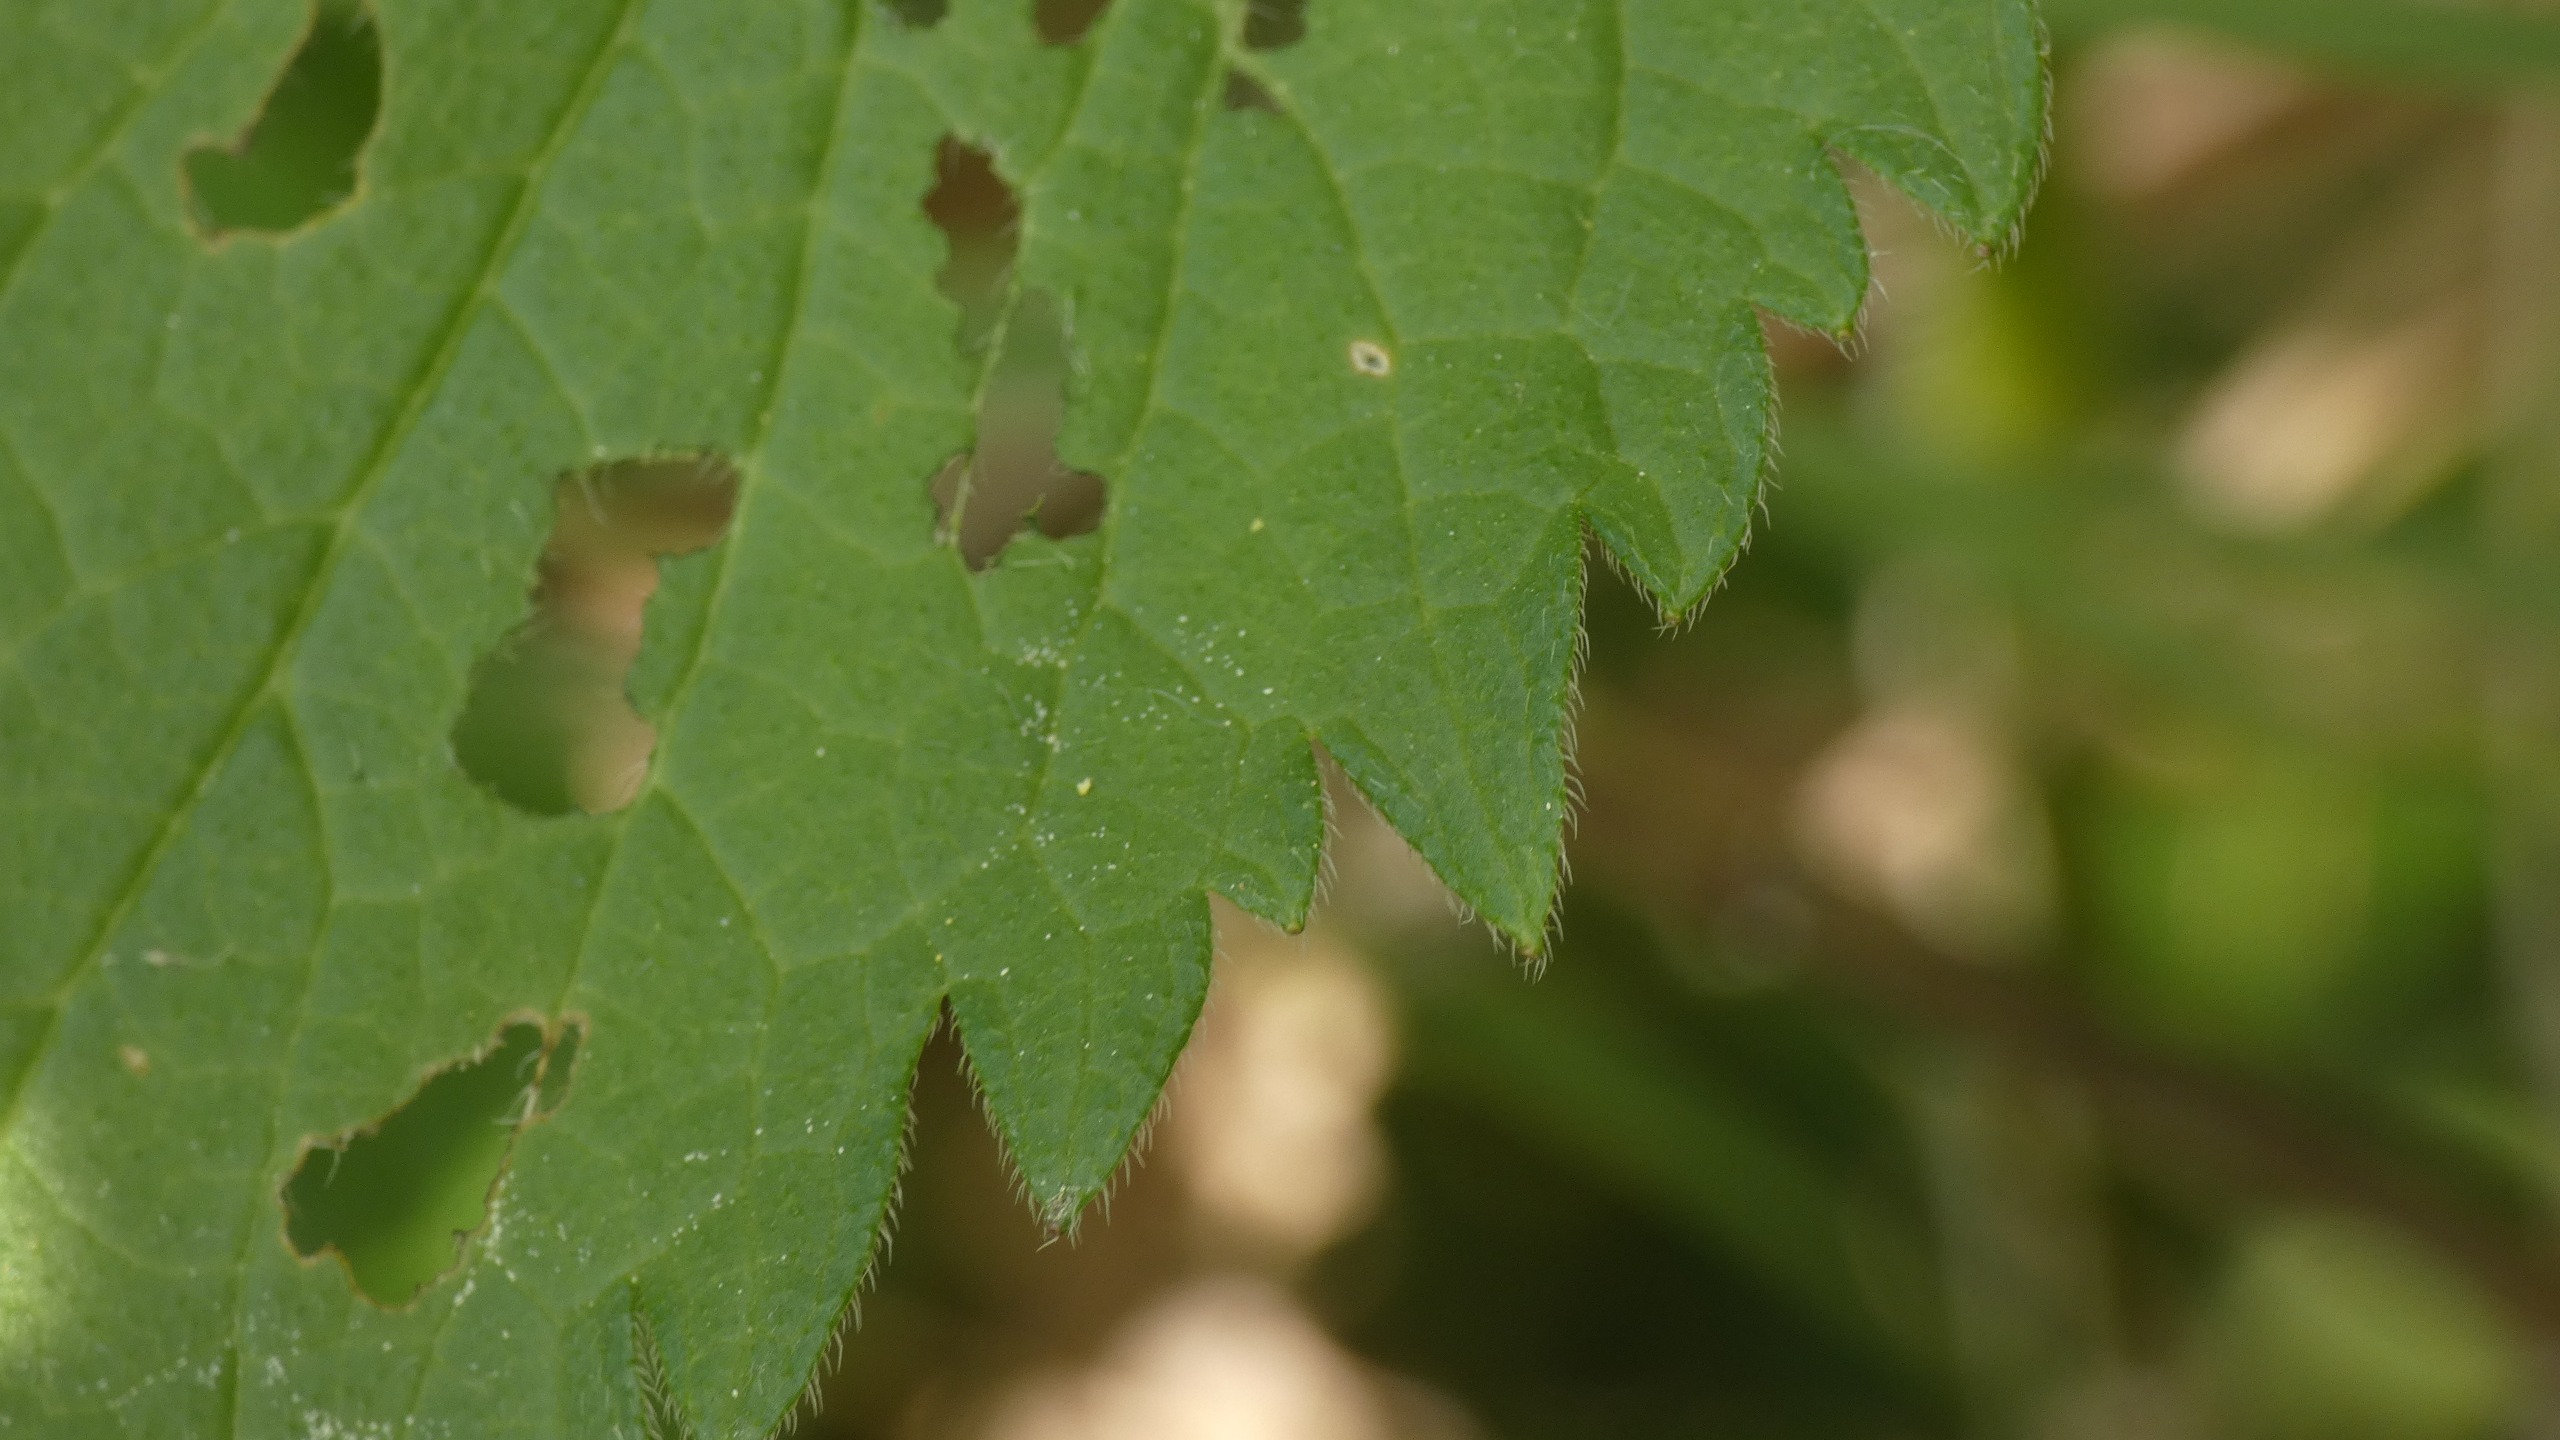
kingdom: Plantae
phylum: Tracheophyta
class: Magnoliopsida
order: Lamiales
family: Lamiaceae
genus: Lamium
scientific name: Lamium album
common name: Døvnælde
